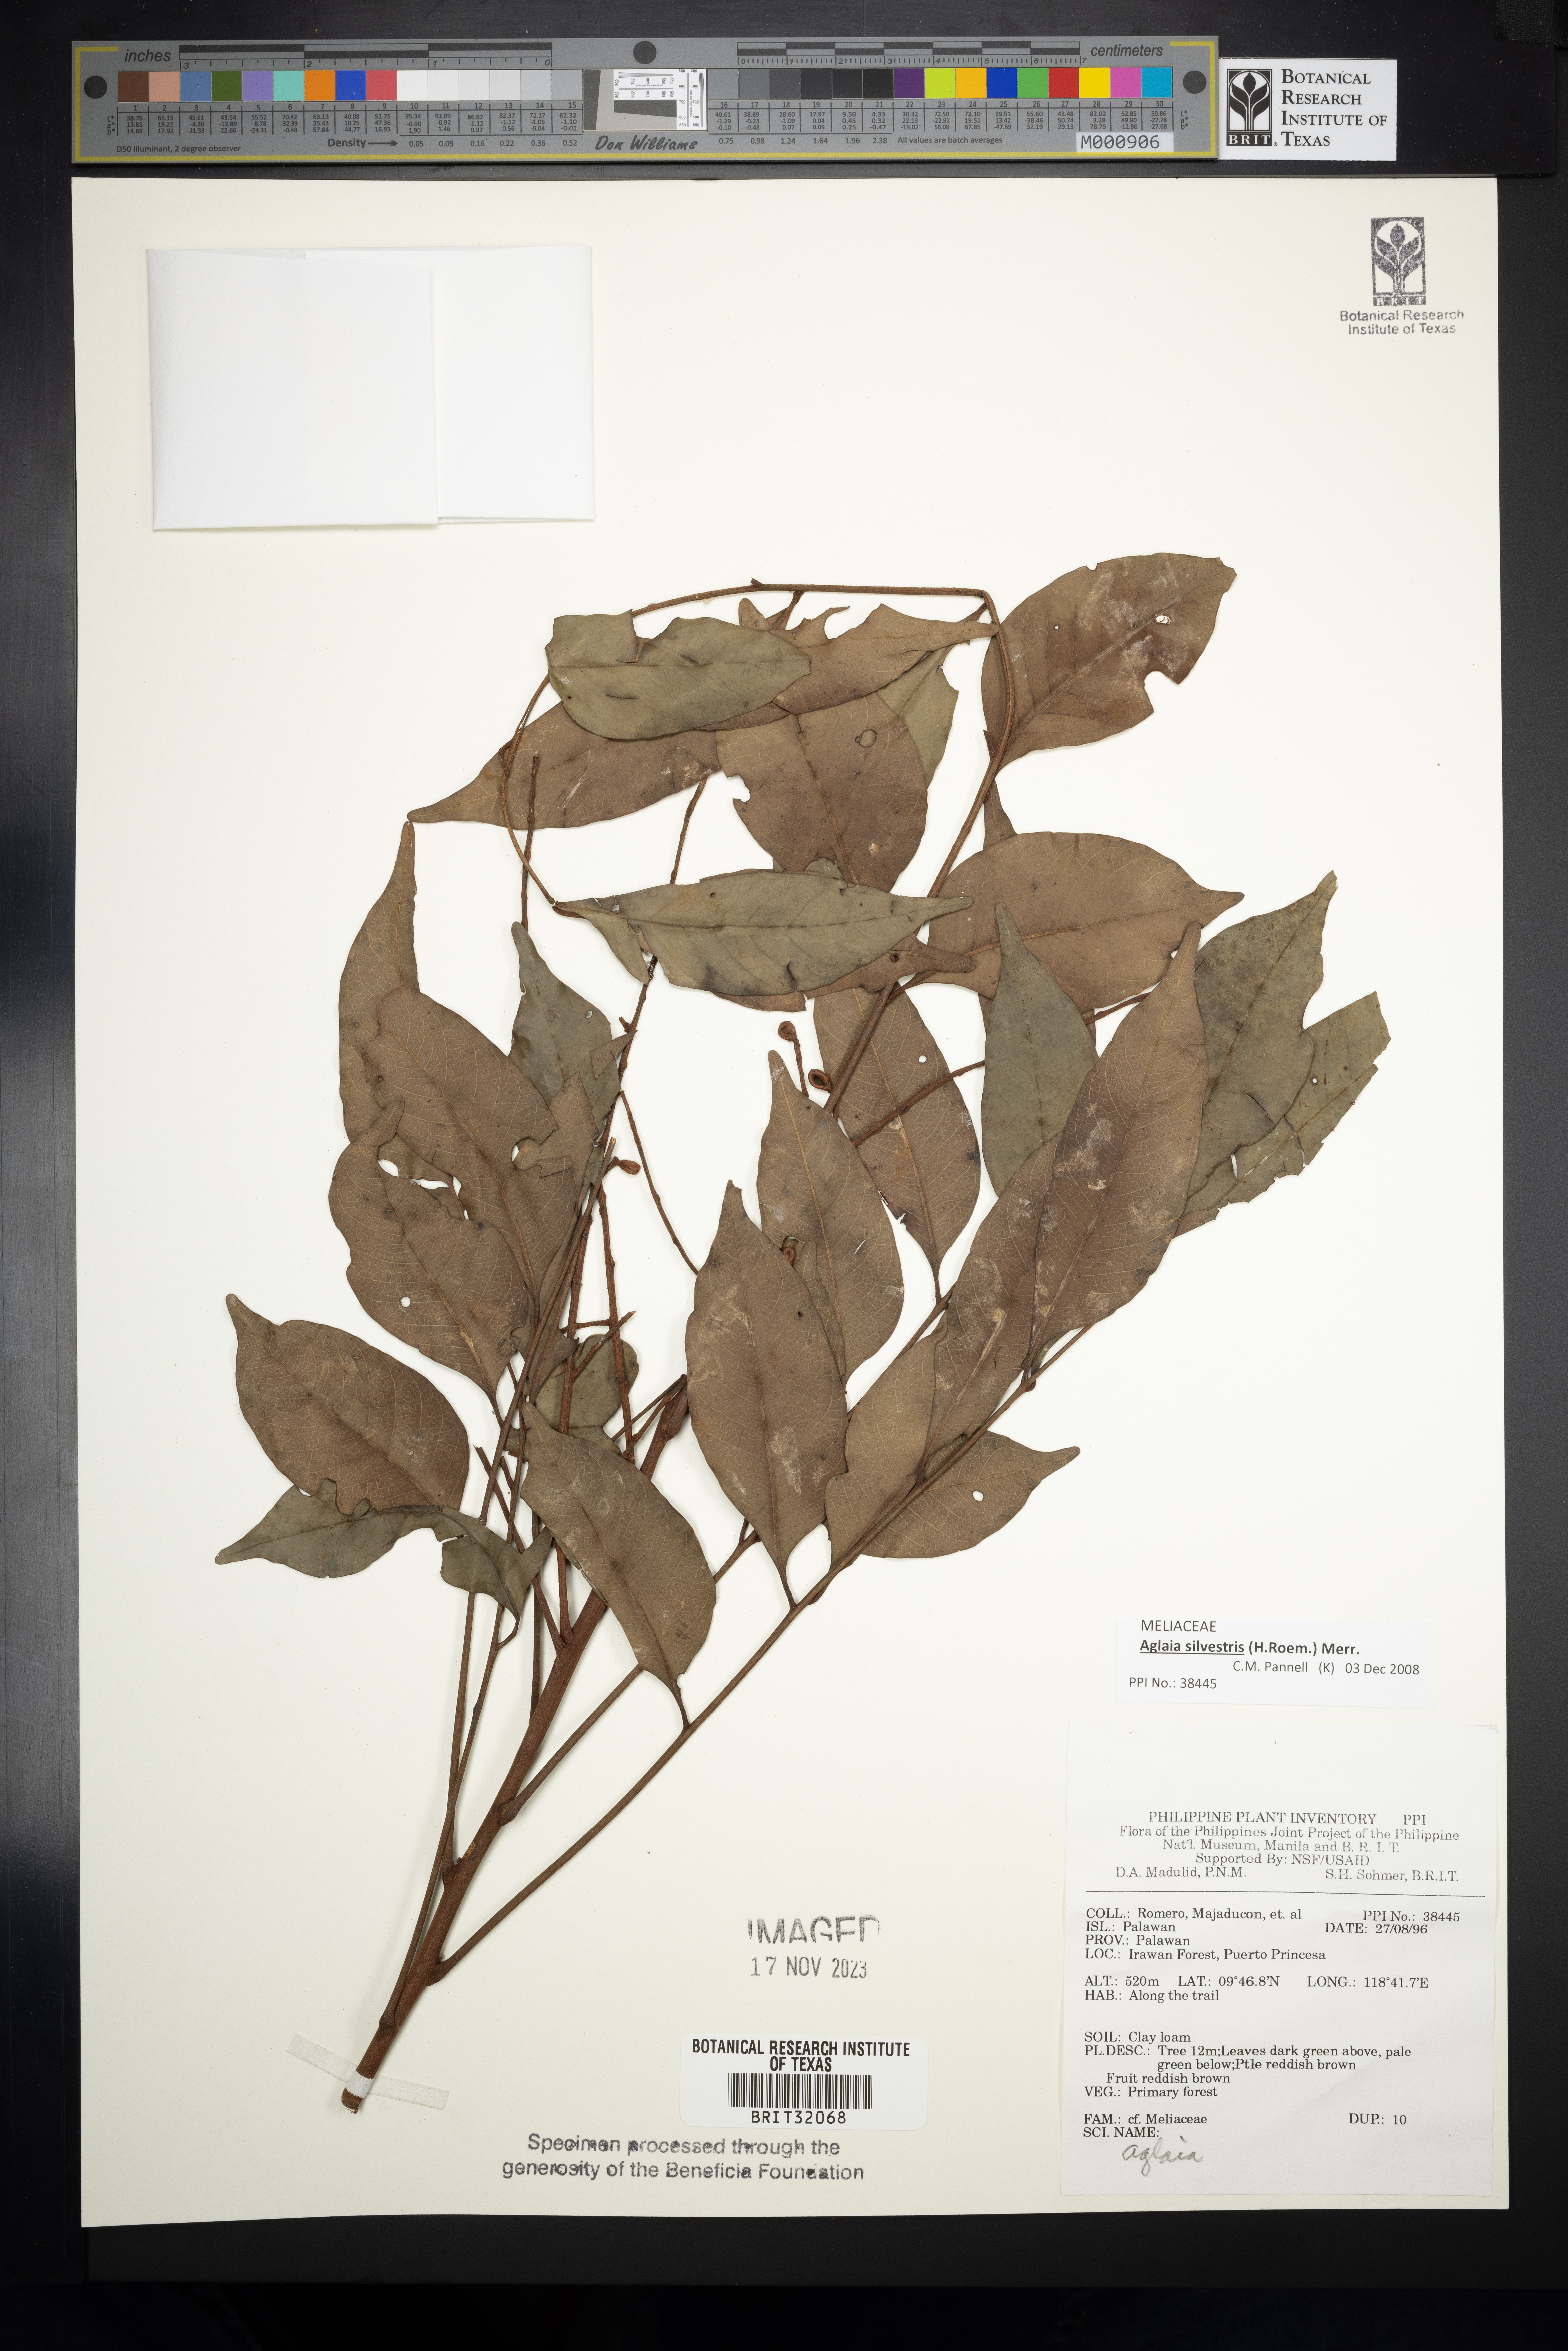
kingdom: Plantae
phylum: Tracheophyta
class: Magnoliopsida
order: Sapindales
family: Meliaceae
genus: Aglaia
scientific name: Aglaia
